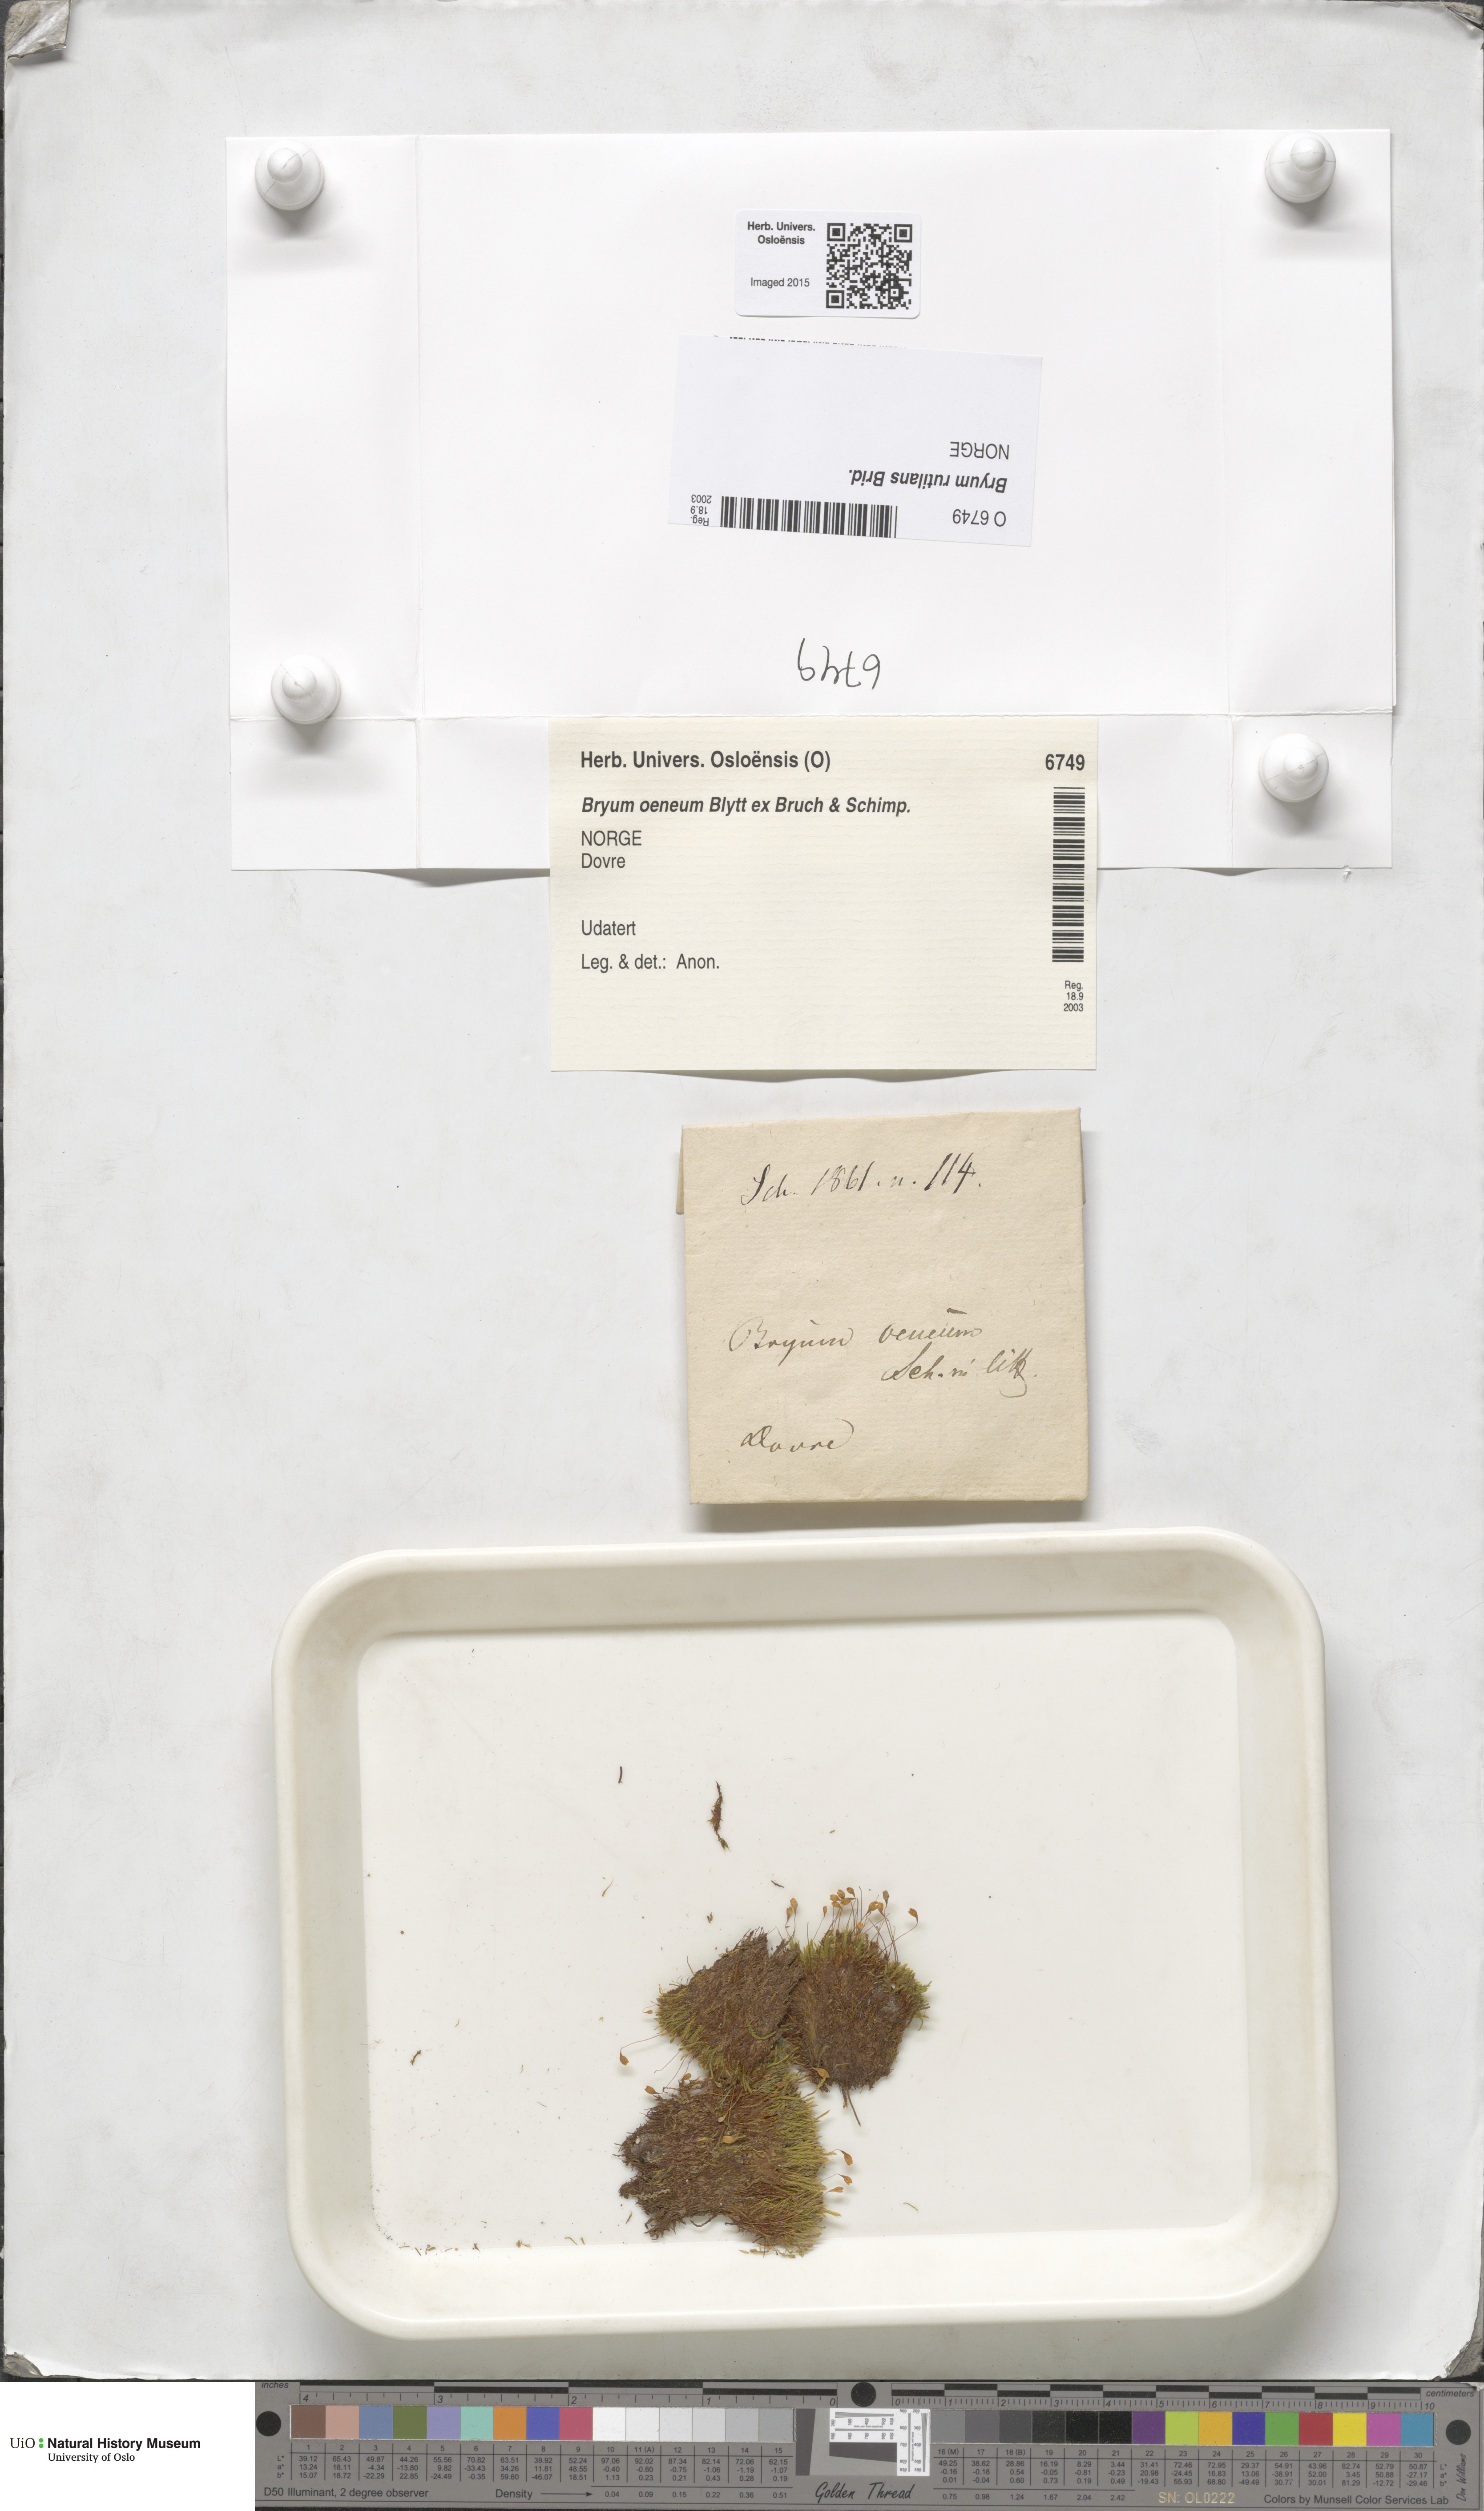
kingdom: Plantae
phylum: Bryophyta
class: Bryopsida
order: Bryales
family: Bryaceae
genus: Ptychostomum
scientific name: Ptychostomum pallens
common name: Pale thread-moss
